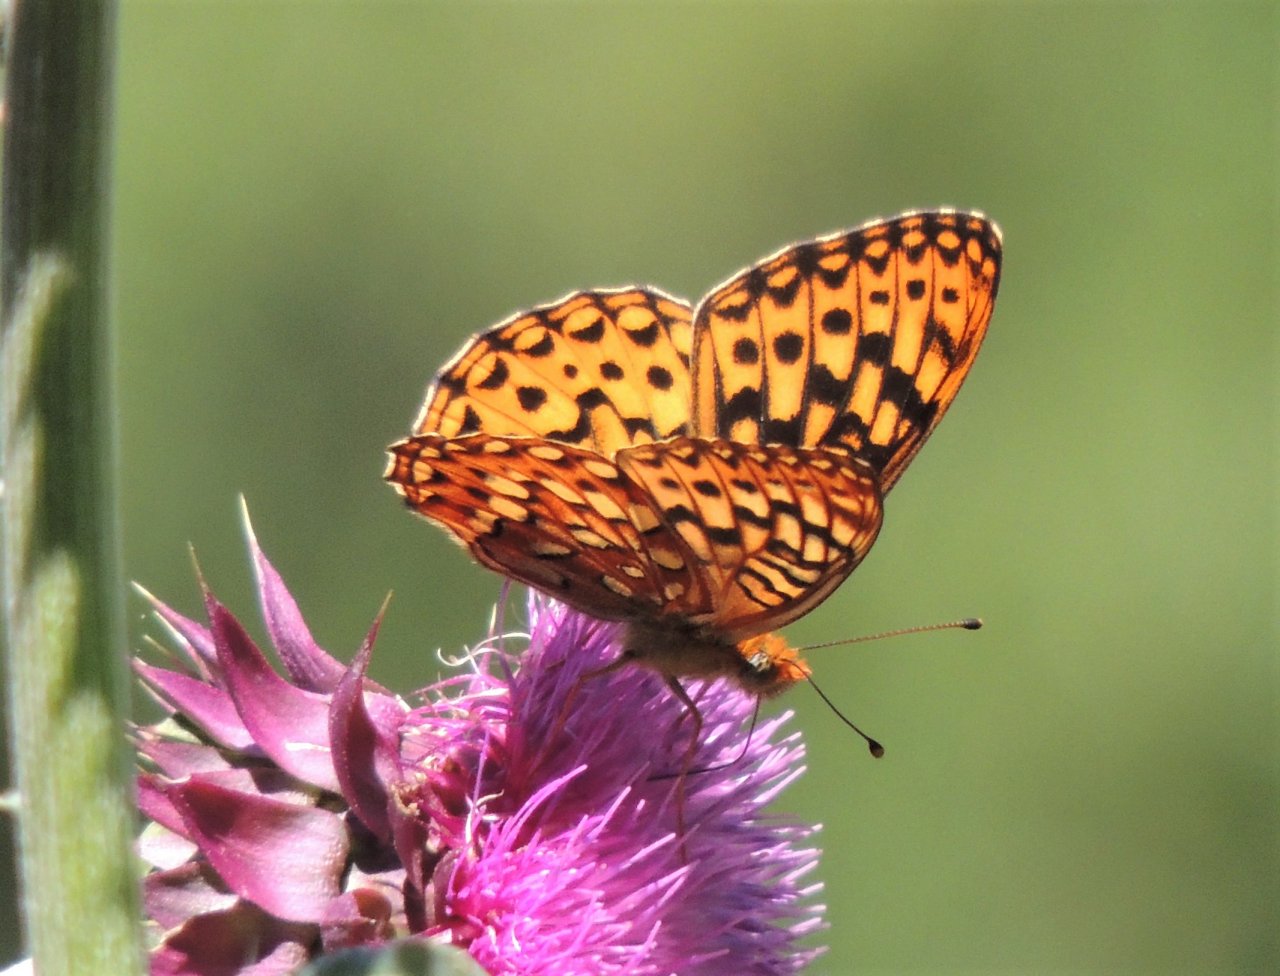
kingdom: Animalia
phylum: Arthropoda
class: Insecta
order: Lepidoptera
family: Nymphalidae
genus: Speyeria
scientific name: Speyeria zerene
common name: Zerene Fritillary
